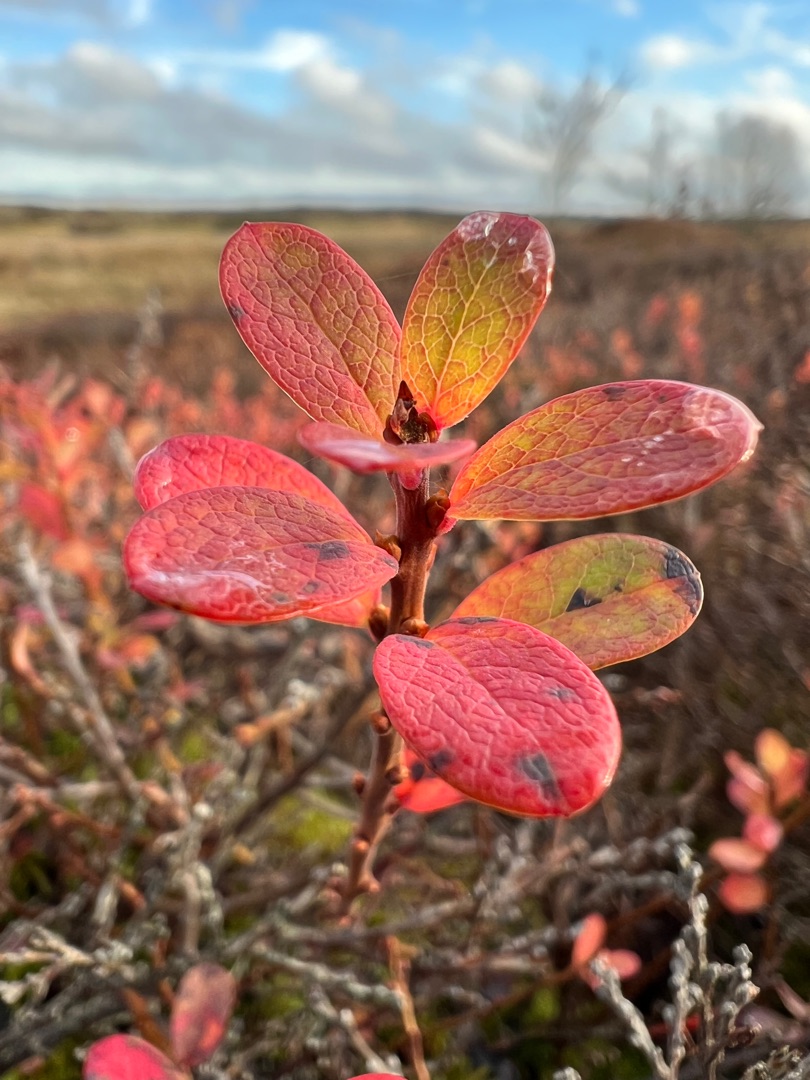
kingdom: Plantae
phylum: Tracheophyta
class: Magnoliopsida
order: Ericales
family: Ericaceae
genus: Vaccinium
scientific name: Vaccinium uliginosum
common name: Mose-bølle
